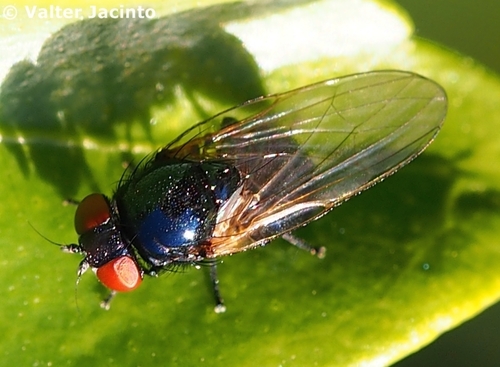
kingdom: Animalia
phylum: Arthropoda
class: Insecta
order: Diptera
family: Lonchaeidae
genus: Silba
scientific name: Silba fumosa
